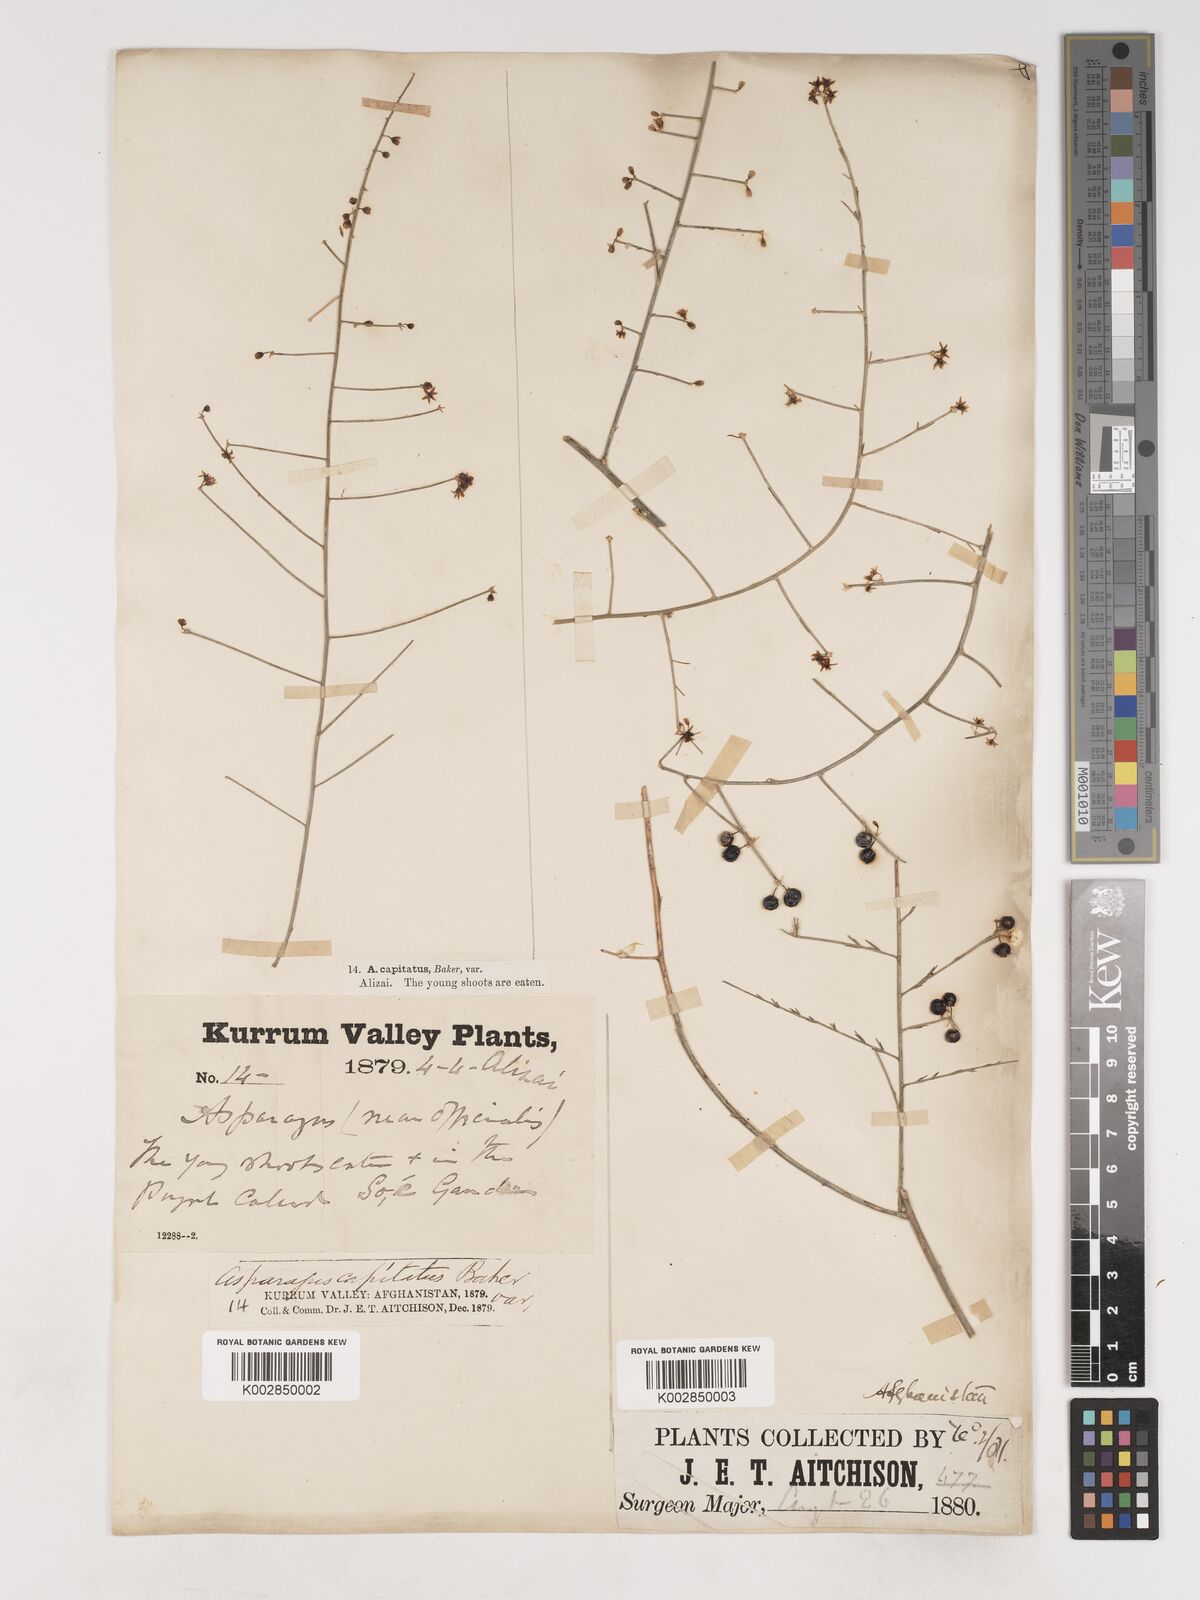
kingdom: Plantae
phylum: Tracheophyta
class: Liliopsida
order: Asparagales
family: Asparagaceae
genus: Asparagus
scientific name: Asparagus capitatus
